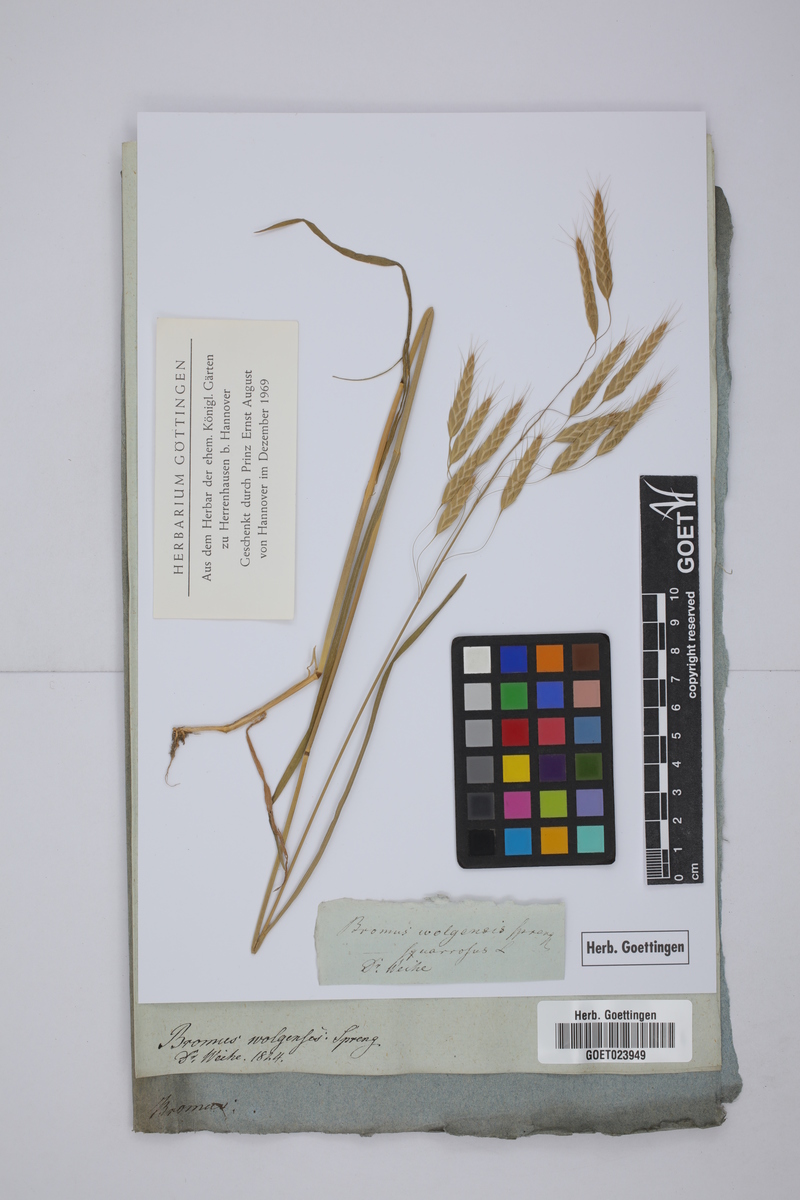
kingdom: Plantae
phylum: Tracheophyta
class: Liliopsida
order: Poales
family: Poaceae
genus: Bromus
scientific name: Bromus squarrosus
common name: Corn brome
